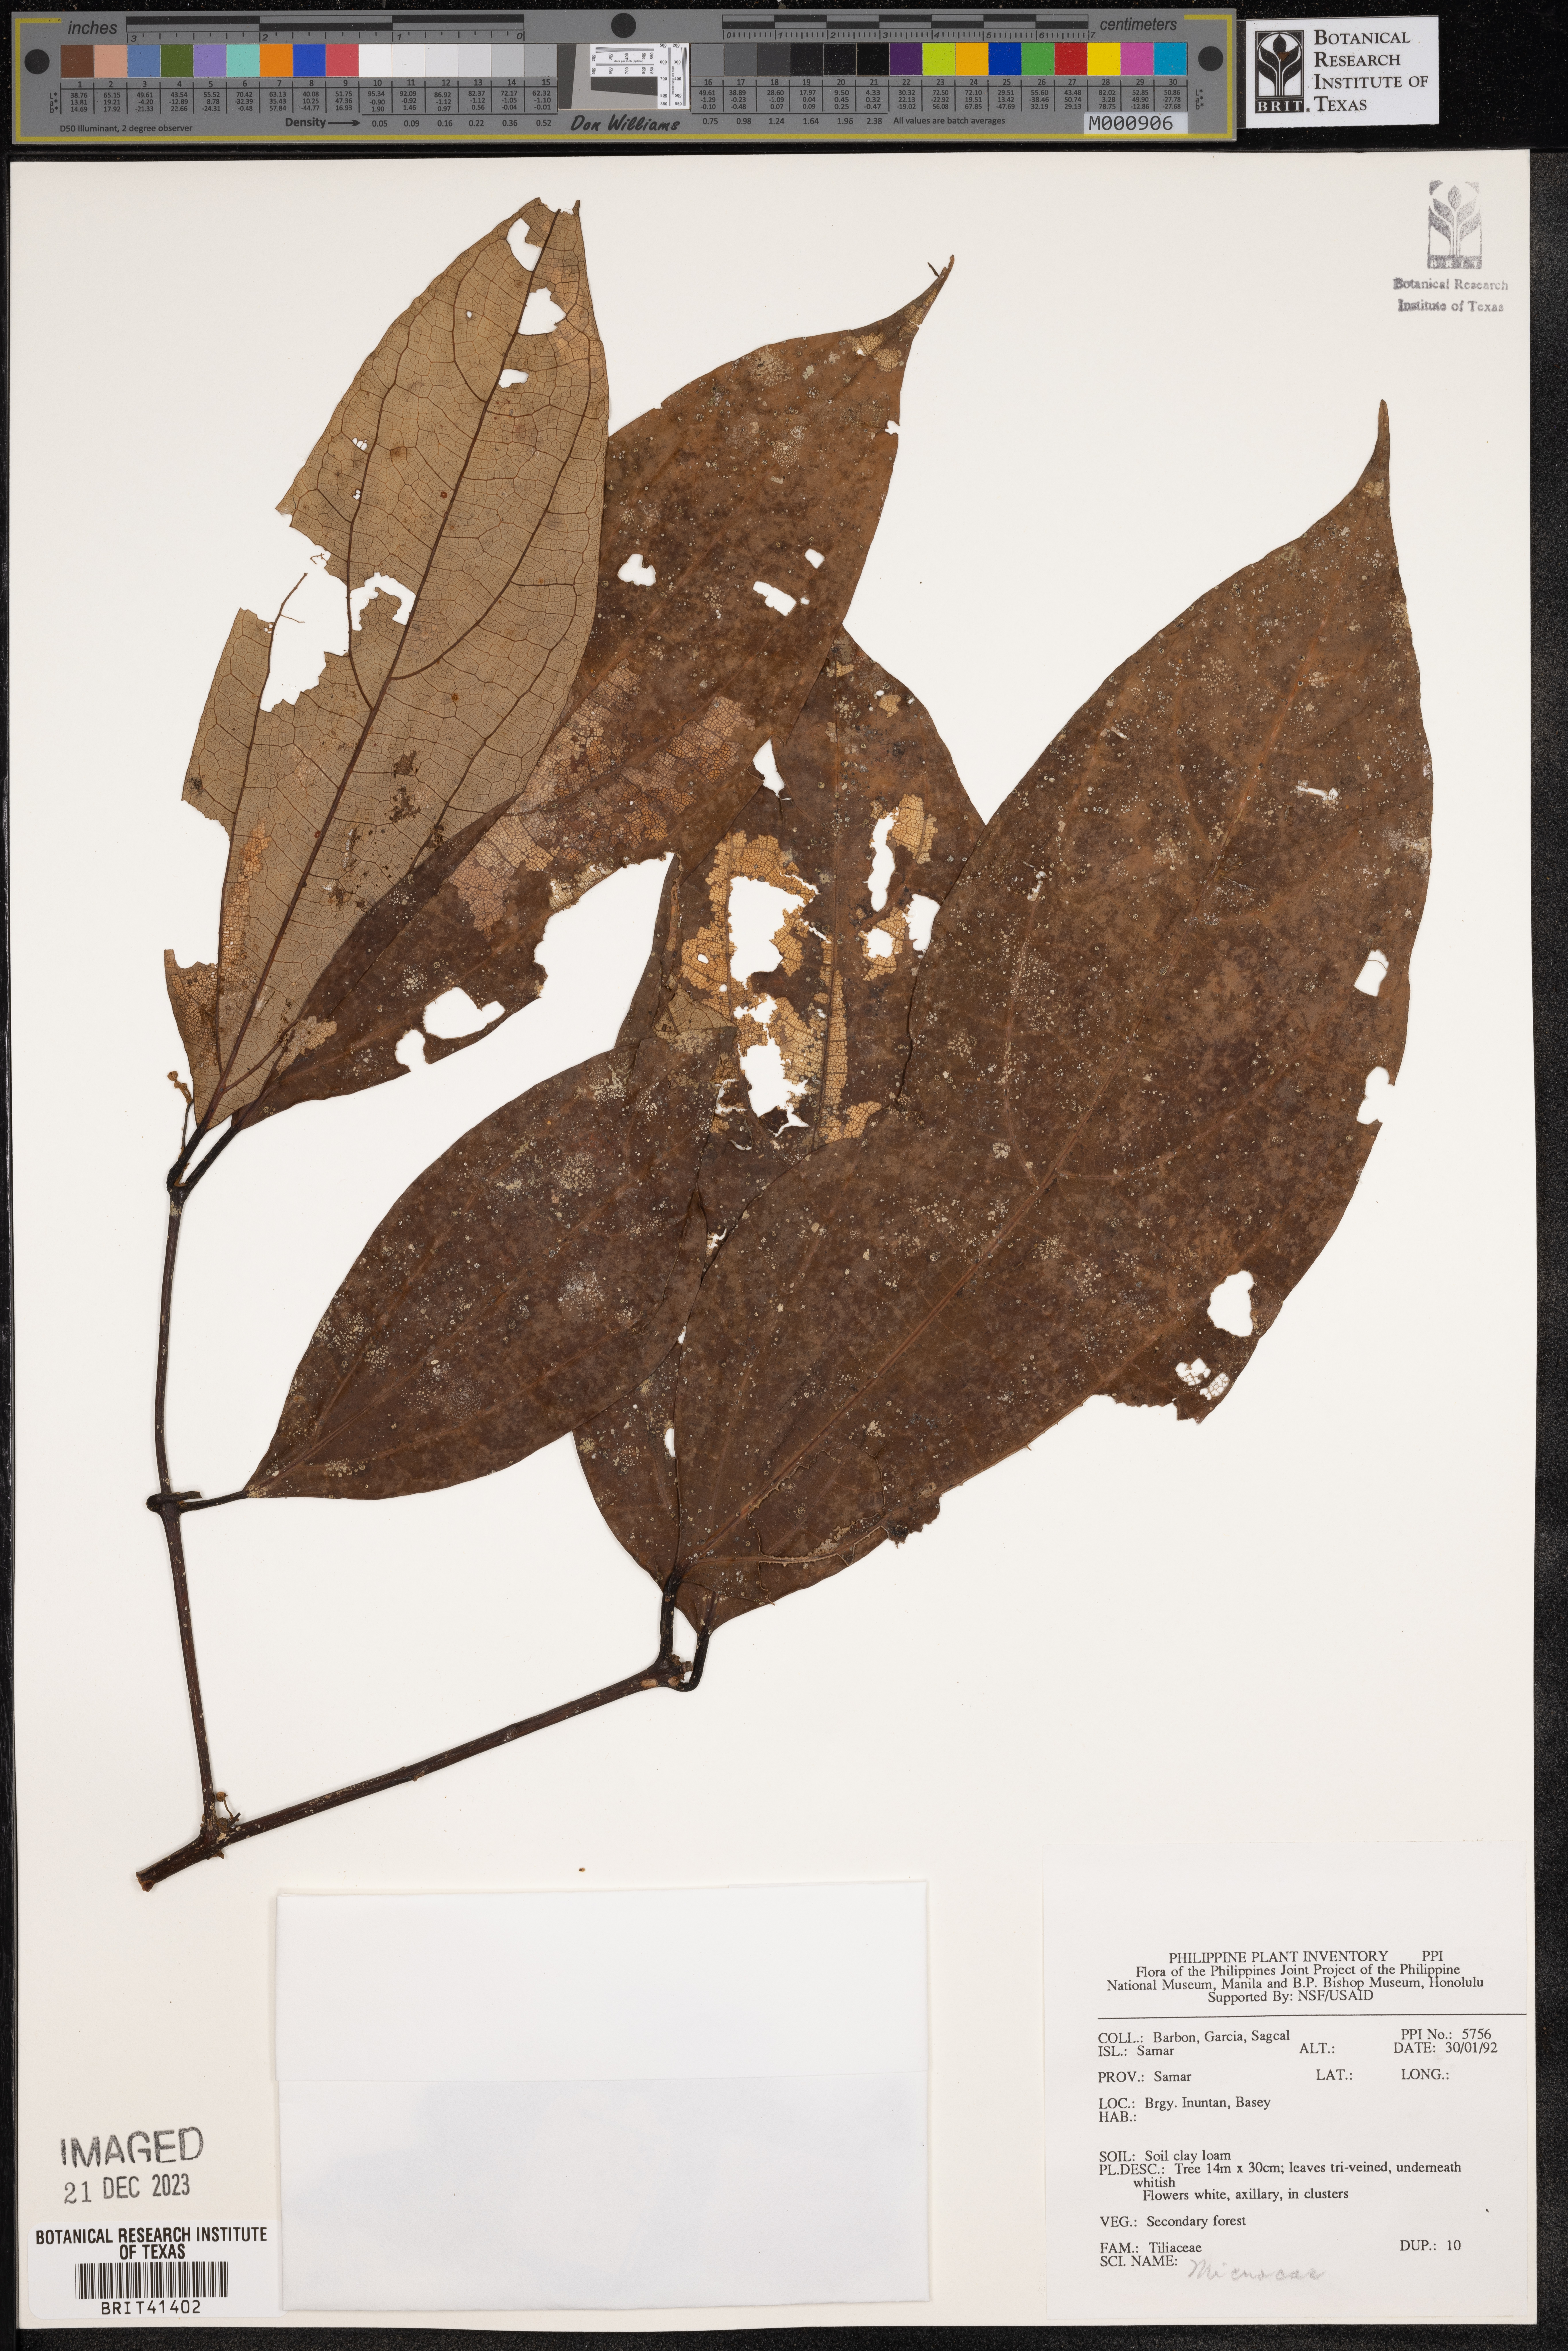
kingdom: Plantae
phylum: Tracheophyta
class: Magnoliopsida
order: Malvales
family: Malvaceae
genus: Microcos
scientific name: Microcos
